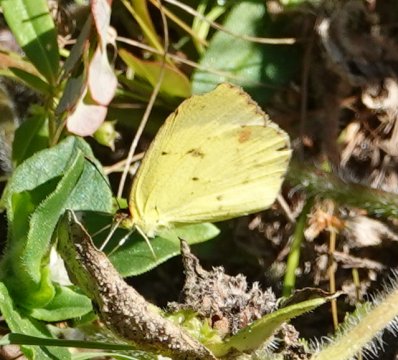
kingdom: Animalia
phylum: Arthropoda
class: Insecta
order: Lepidoptera
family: Pieridae
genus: Pyrisitia
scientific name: Pyrisitia lisa
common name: Little Yellow
